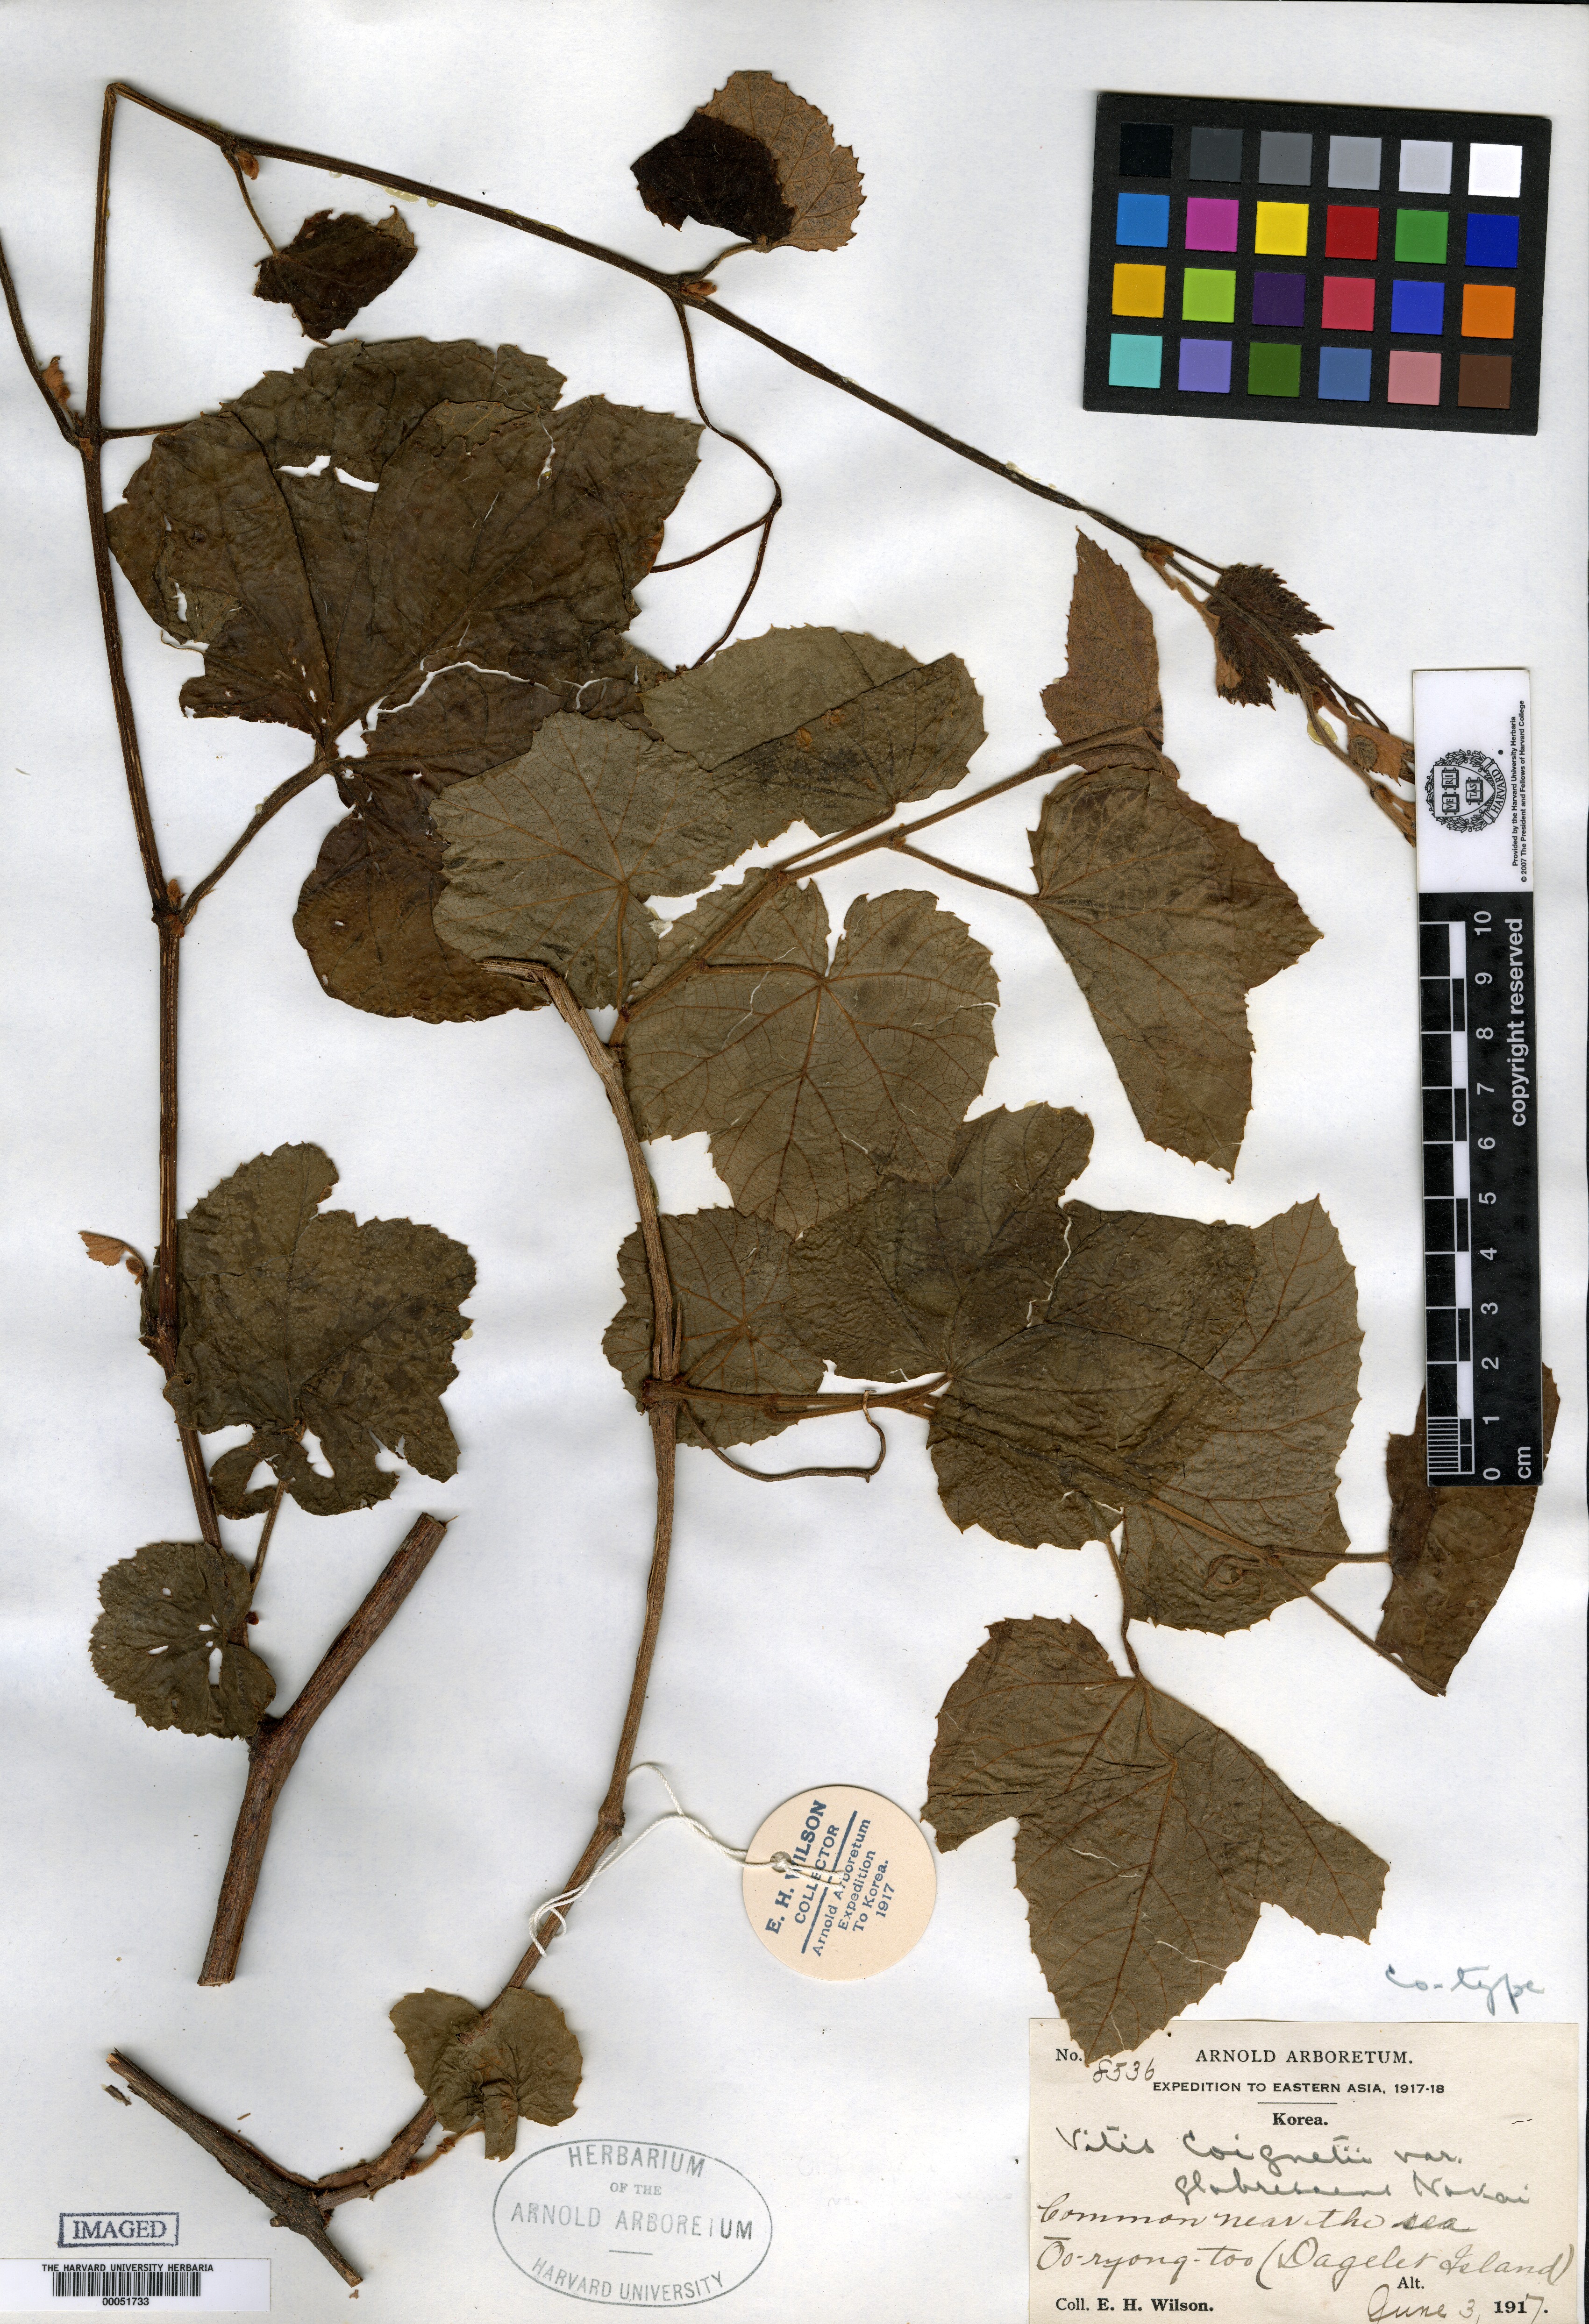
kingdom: Plantae
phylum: Tracheophyta
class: Magnoliopsida
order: Vitales
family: Vitaceae
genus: Vitis
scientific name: Vitis coignetiae
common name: Crimson gloryvine
